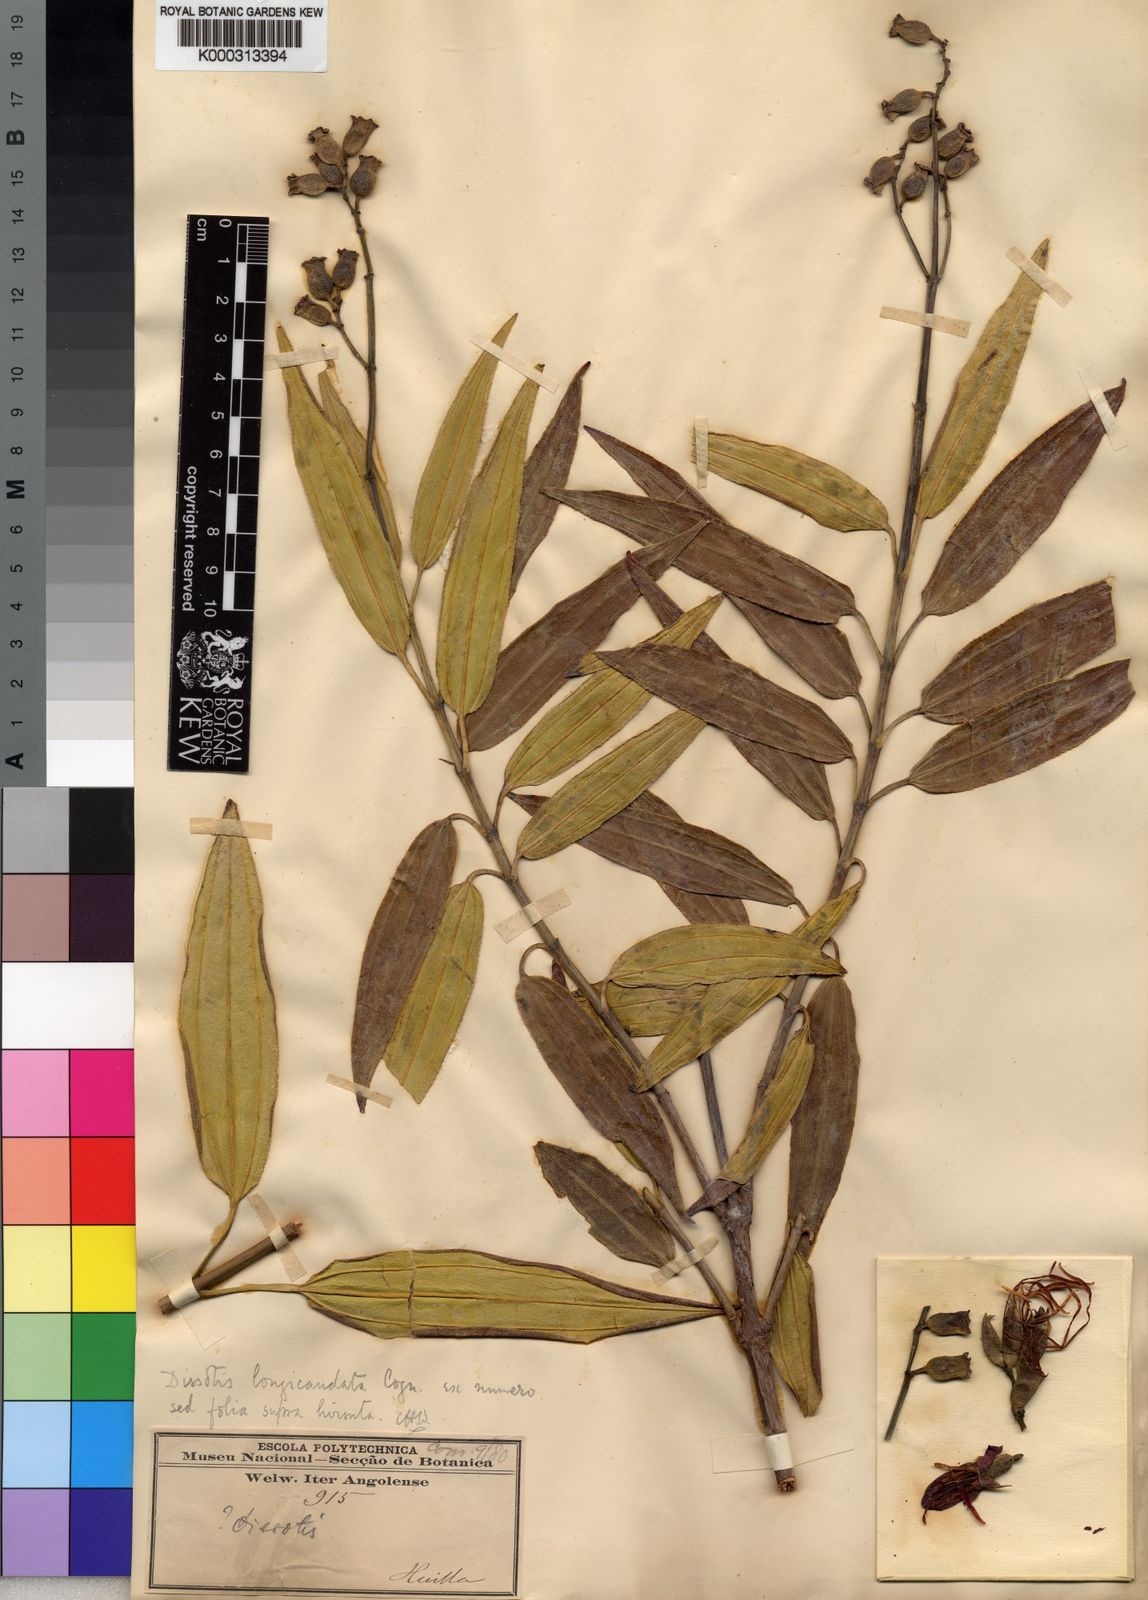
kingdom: Plantae
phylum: Tracheophyta
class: Magnoliopsida
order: Myrtales
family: Melastomataceae
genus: Dissotis
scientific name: Dissotis
